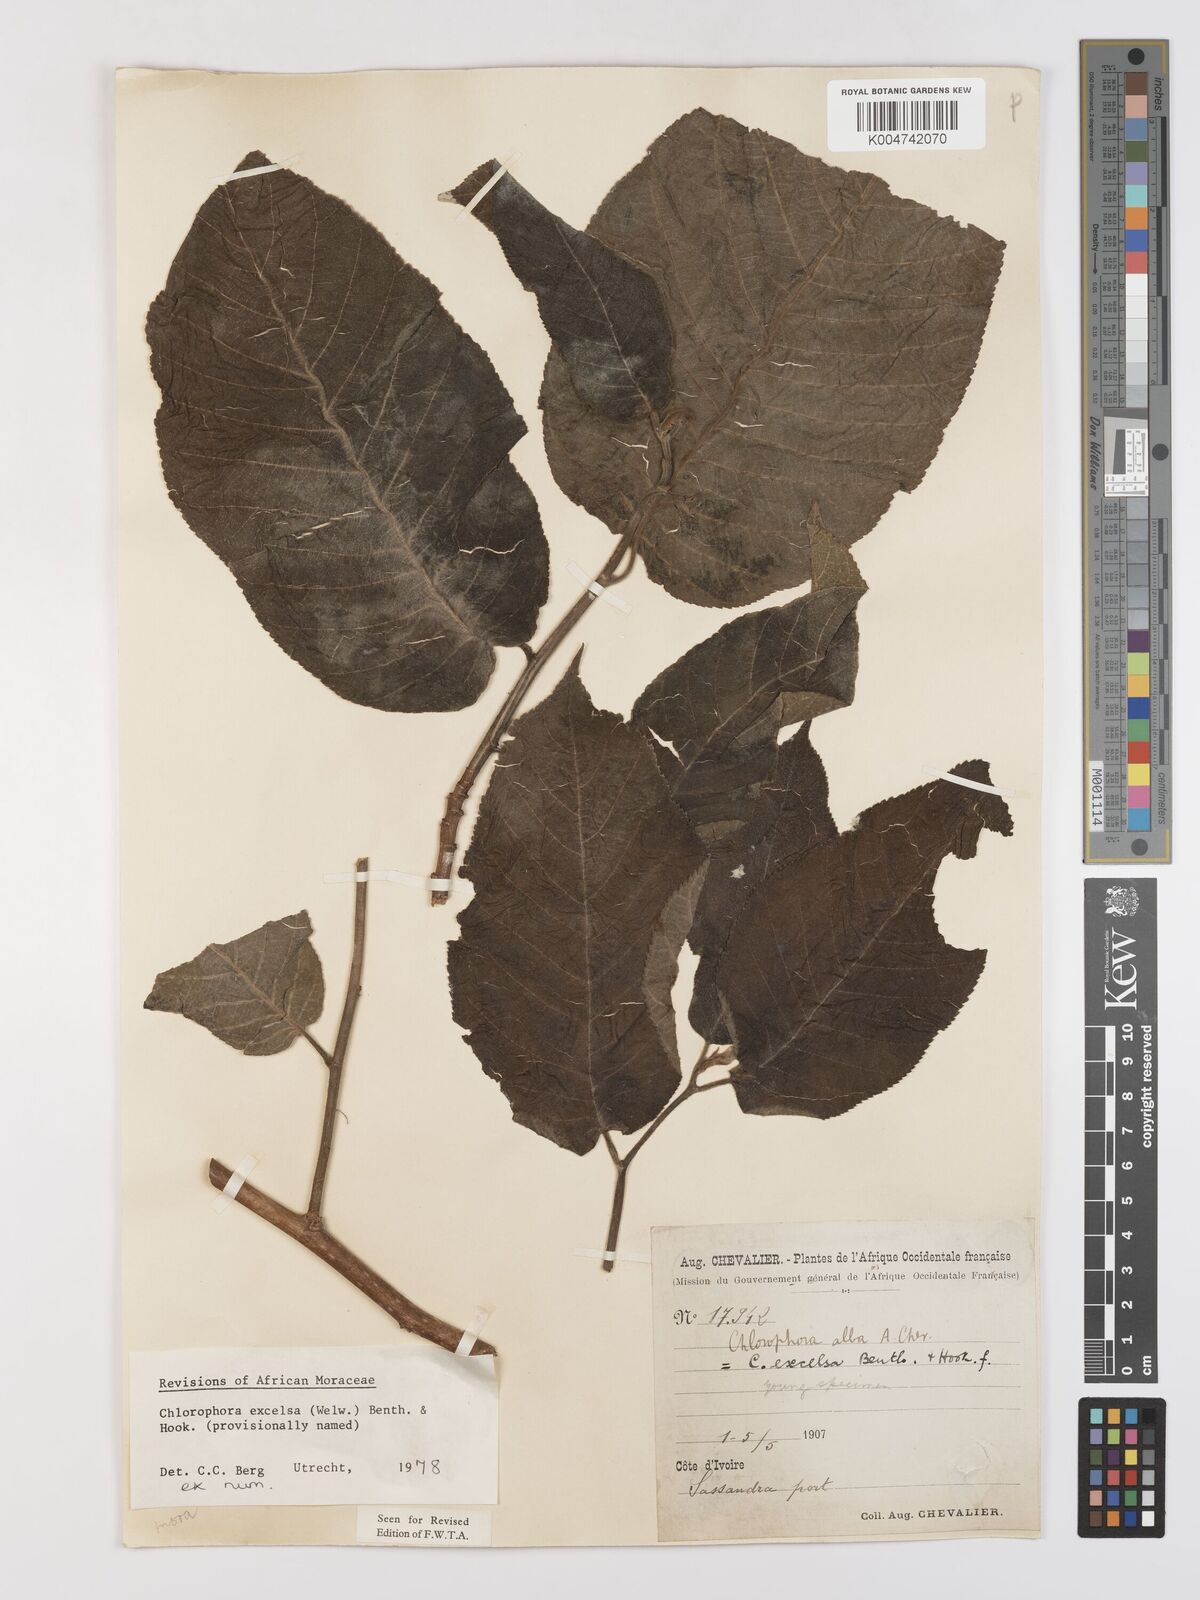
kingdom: Plantae
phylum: Tracheophyta
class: Magnoliopsida
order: Rosales
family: Moraceae
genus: Milicia
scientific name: Milicia excelsa
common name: African teak
